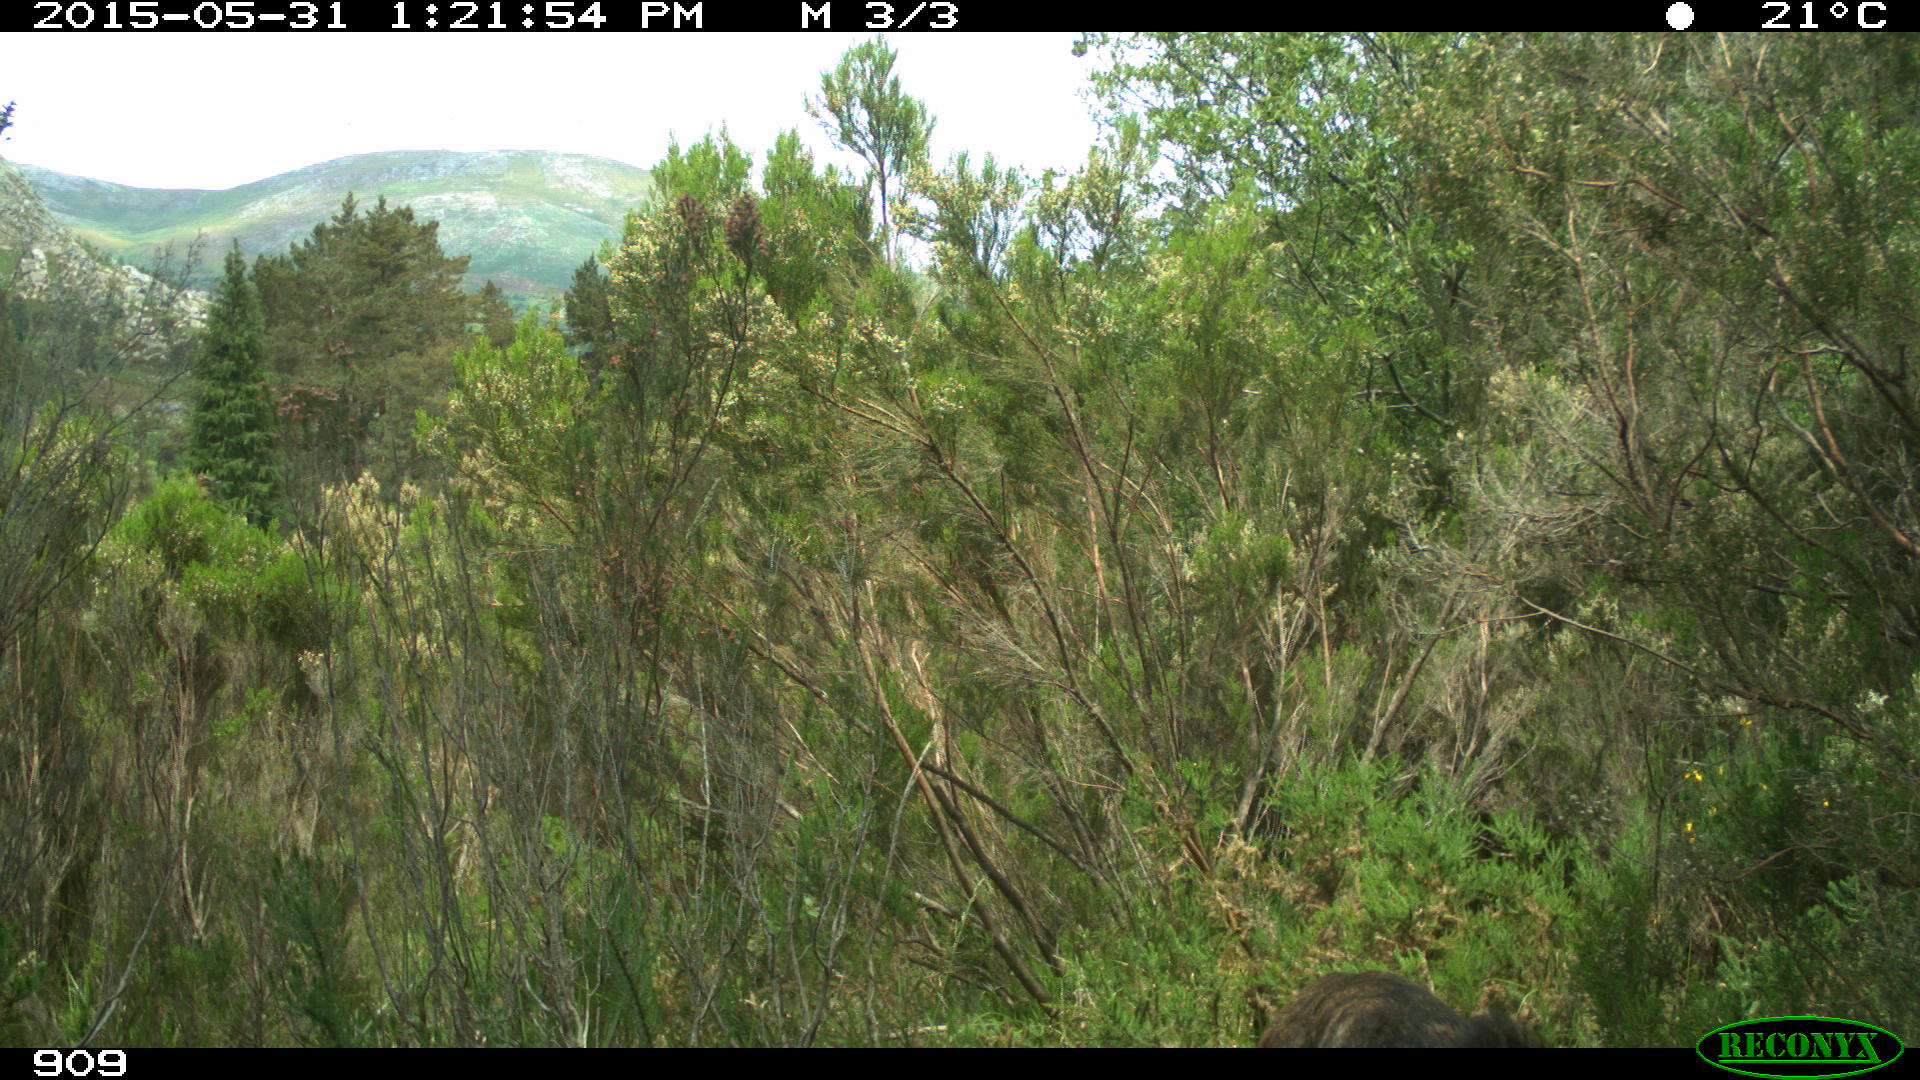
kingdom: Animalia
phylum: Chordata
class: Mammalia
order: Carnivora
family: Canidae
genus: Canis
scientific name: Canis lupus
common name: Gray wolf
